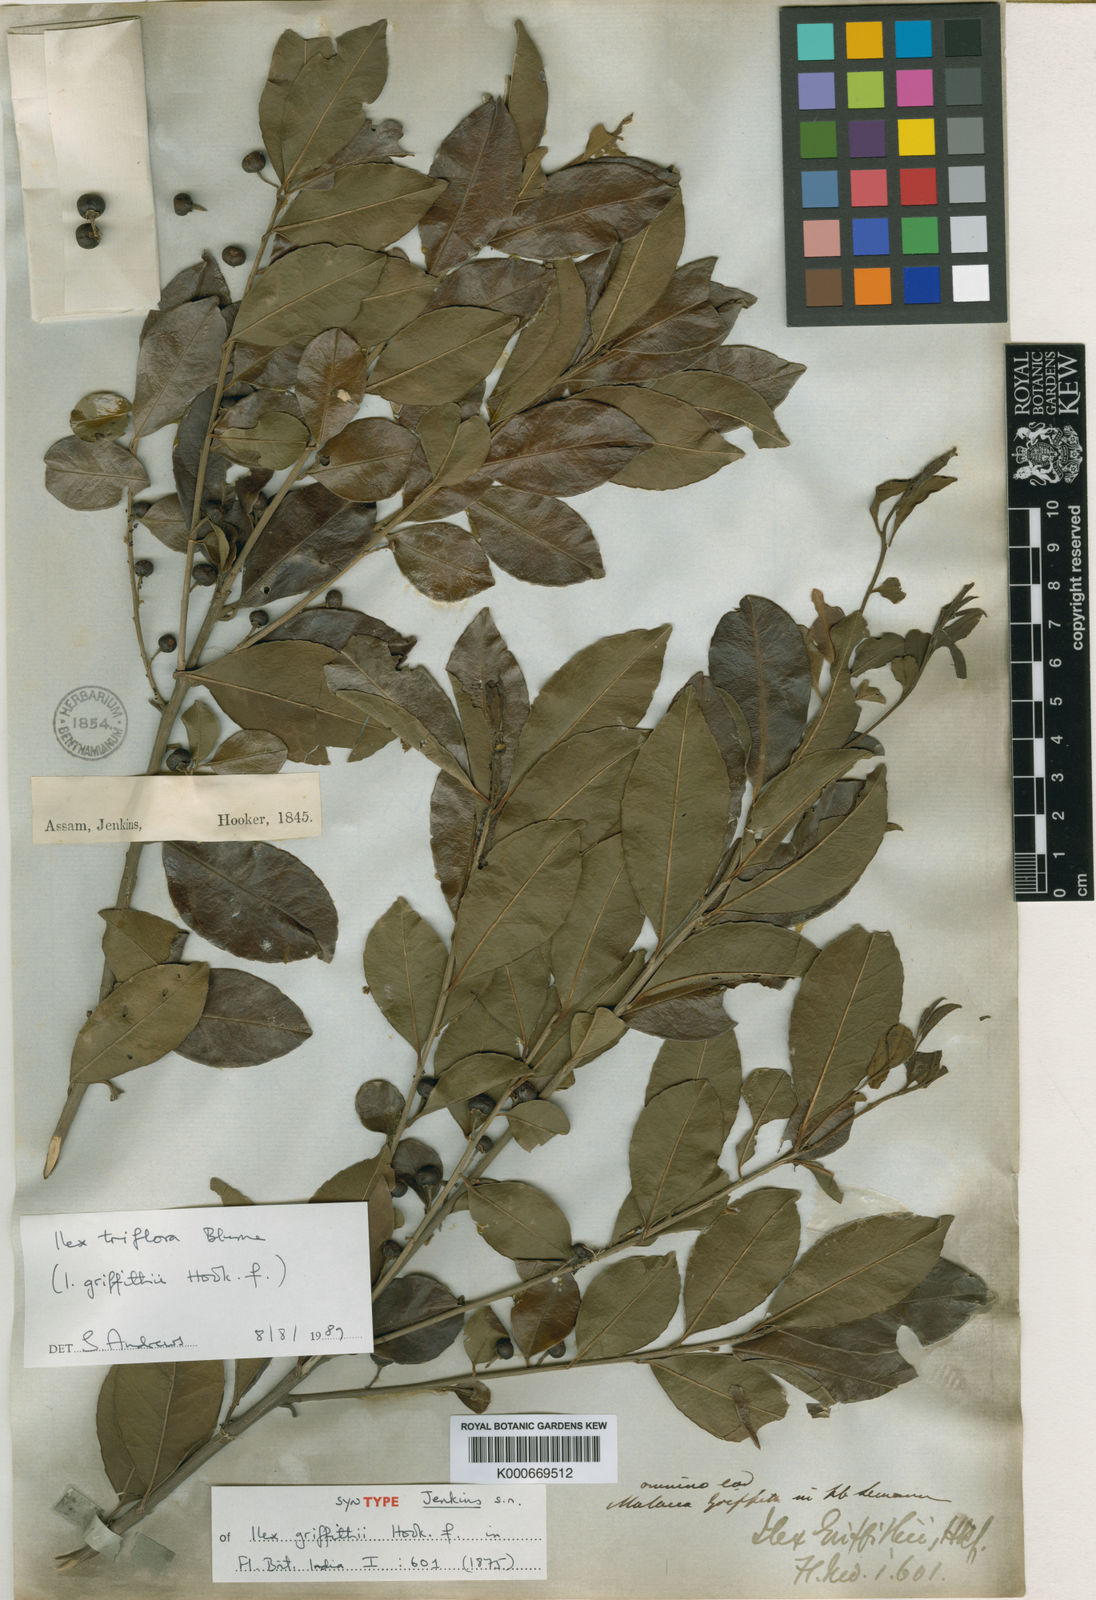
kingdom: Plantae
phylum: Tracheophyta
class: Magnoliopsida
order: Aquifoliales
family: Aquifoliaceae
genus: Ilex
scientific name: Ilex triflora
